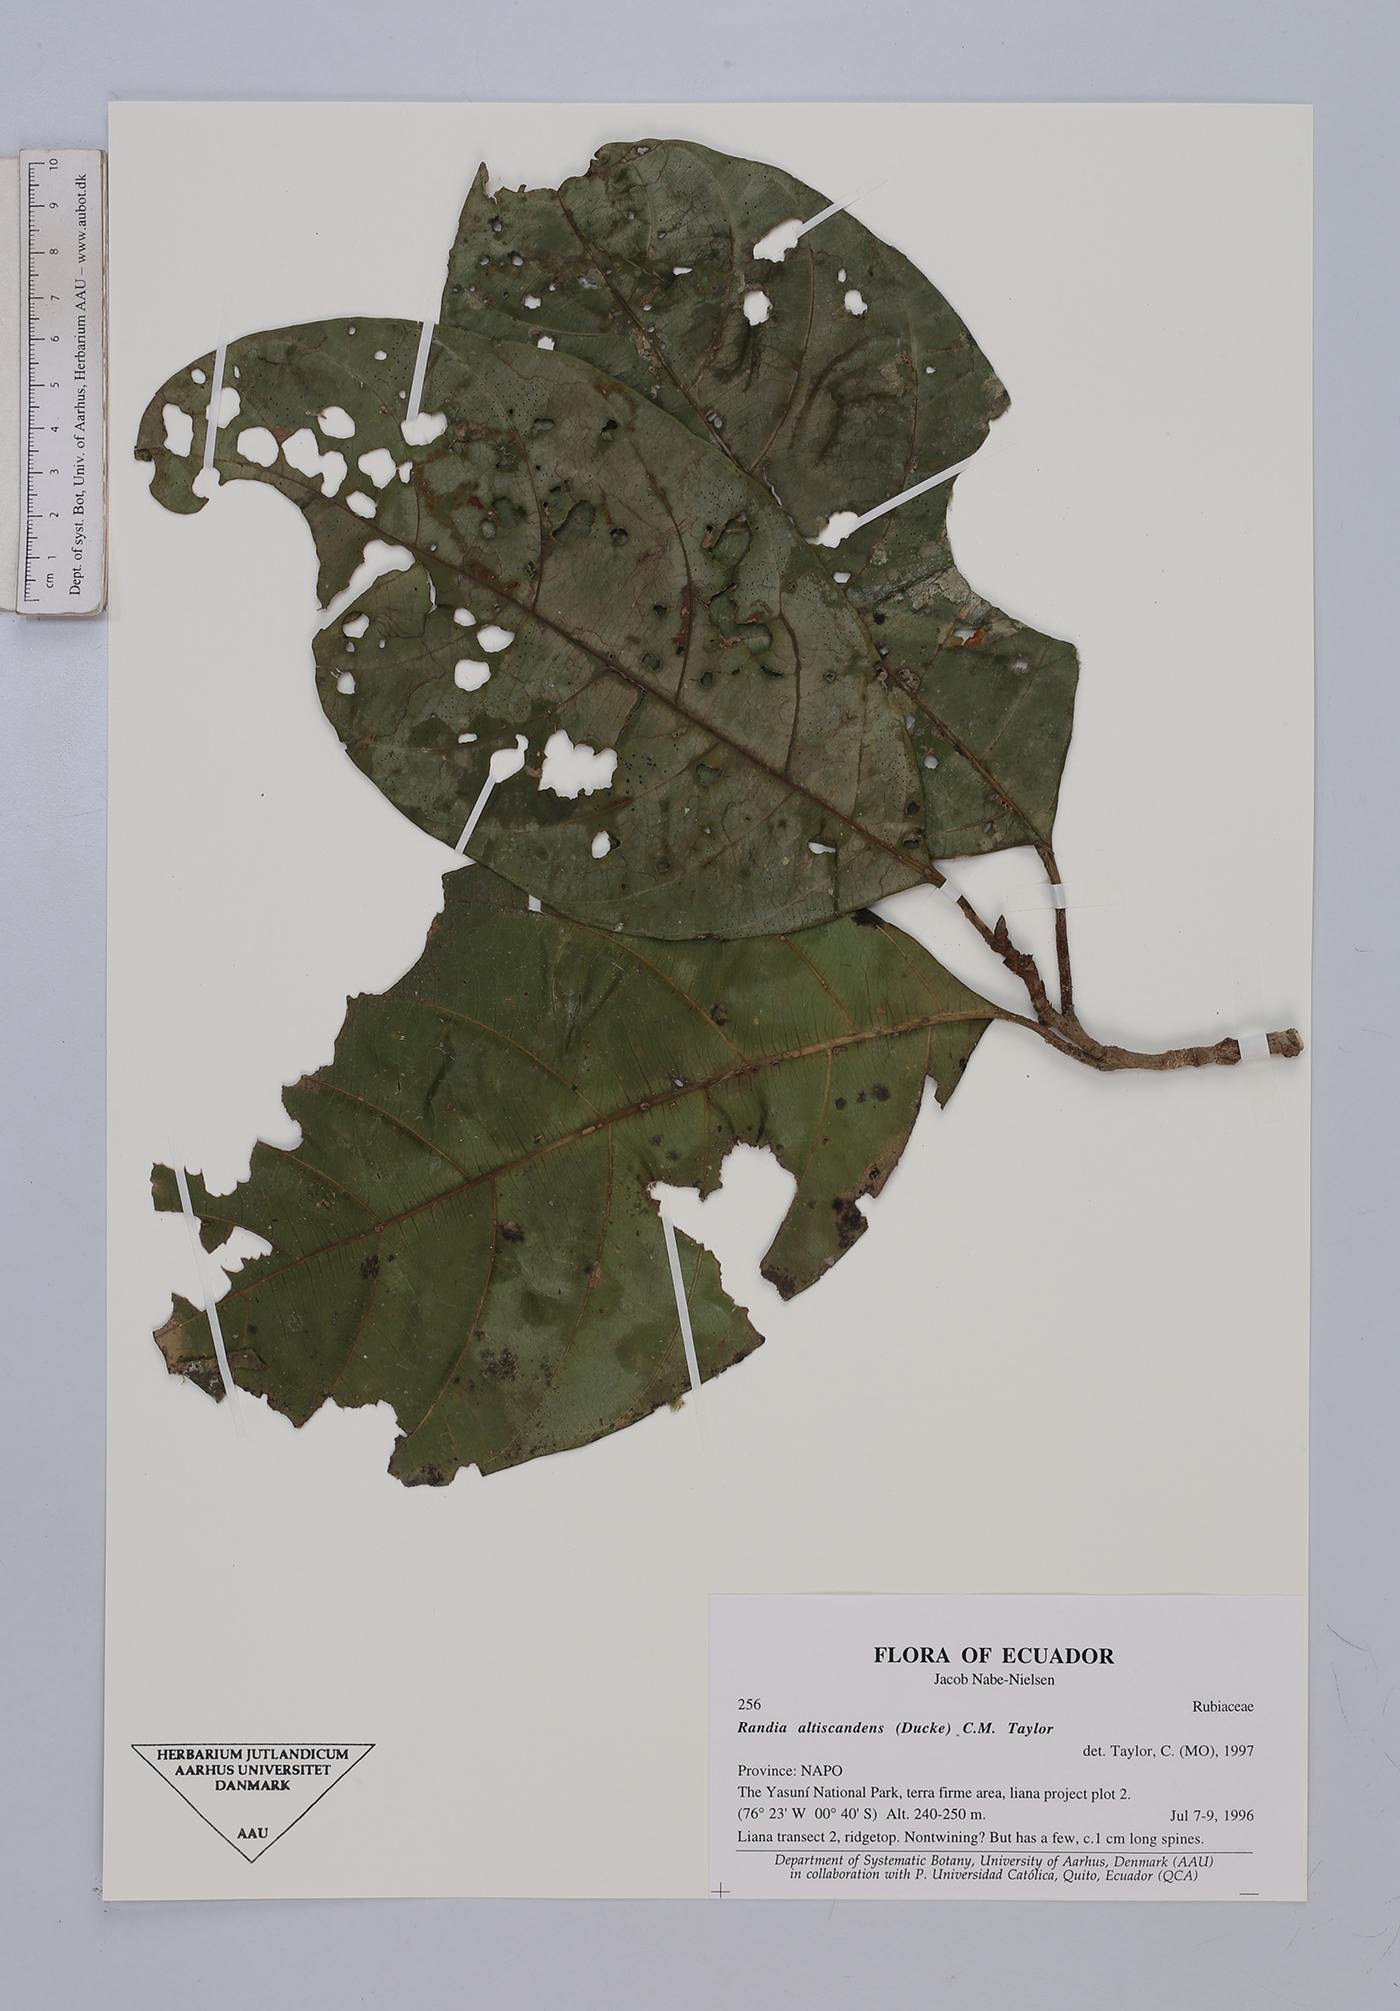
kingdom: Plantae
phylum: Tracheophyta
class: Magnoliopsida
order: Gentianales
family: Rubiaceae
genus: Randia
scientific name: Randia altiscandens
